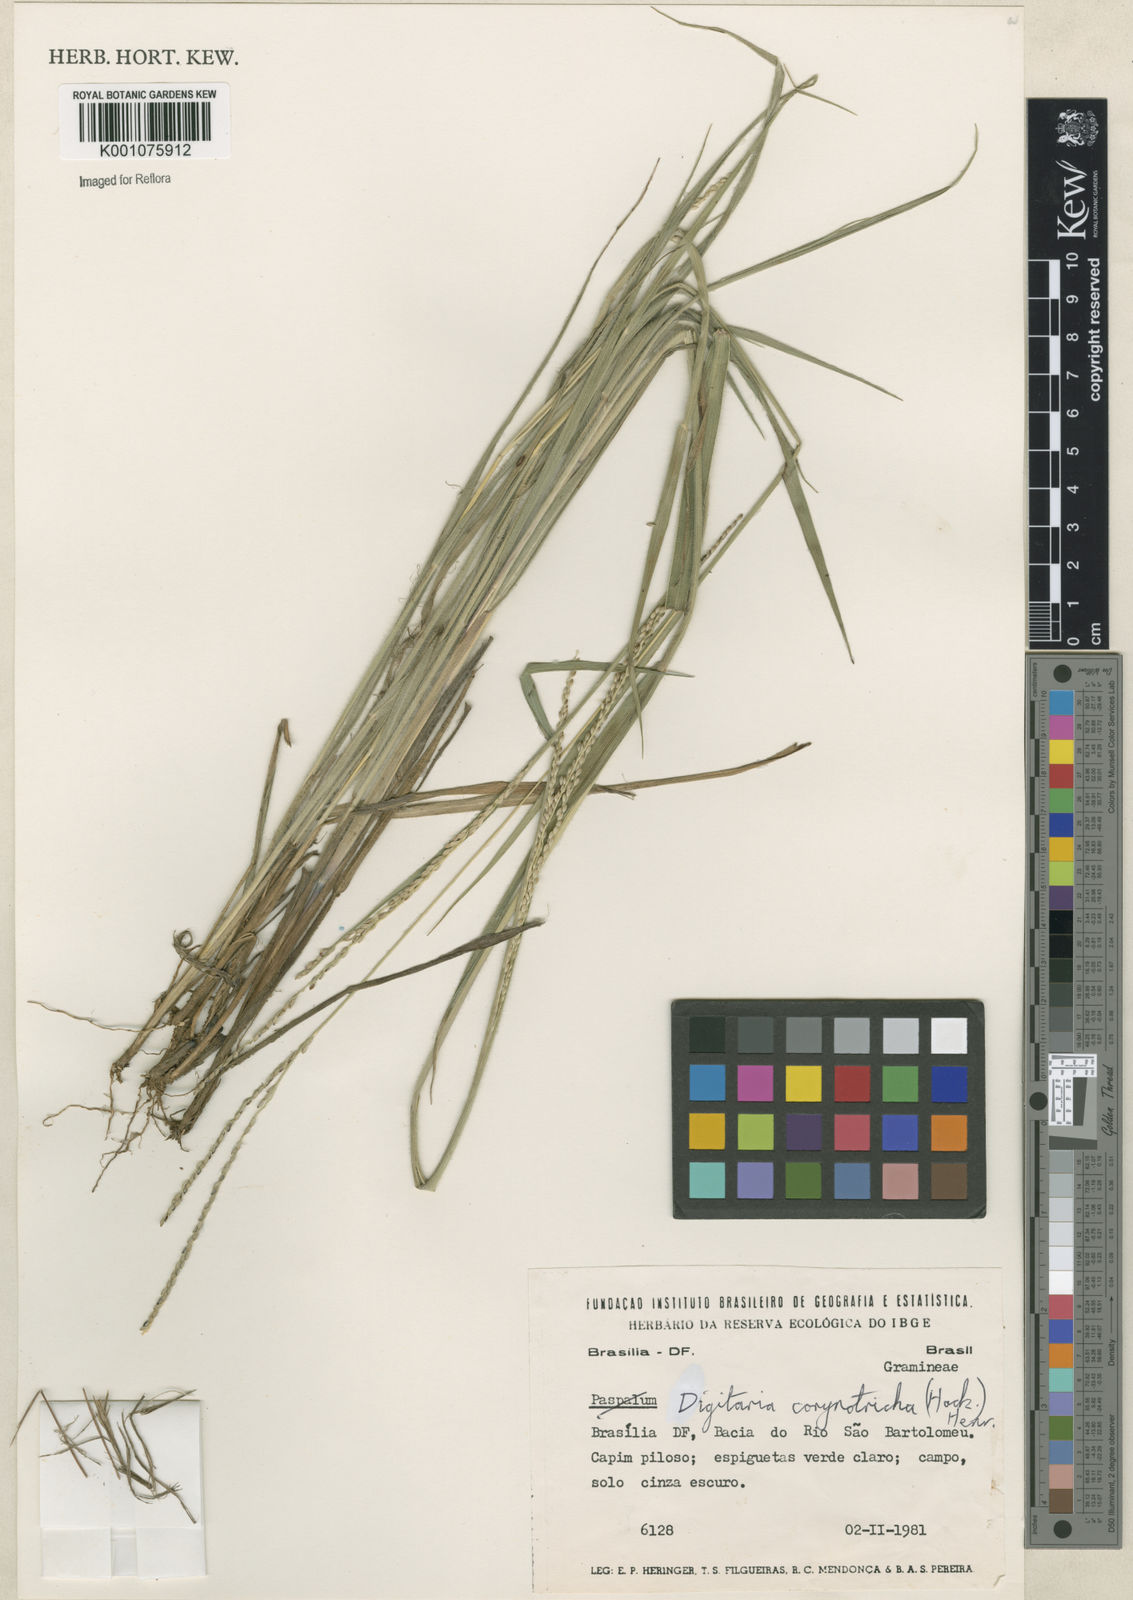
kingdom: Plantae
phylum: Tracheophyta
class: Liliopsida
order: Poales
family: Poaceae
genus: Digitaria
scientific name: Digitaria corynotricha
